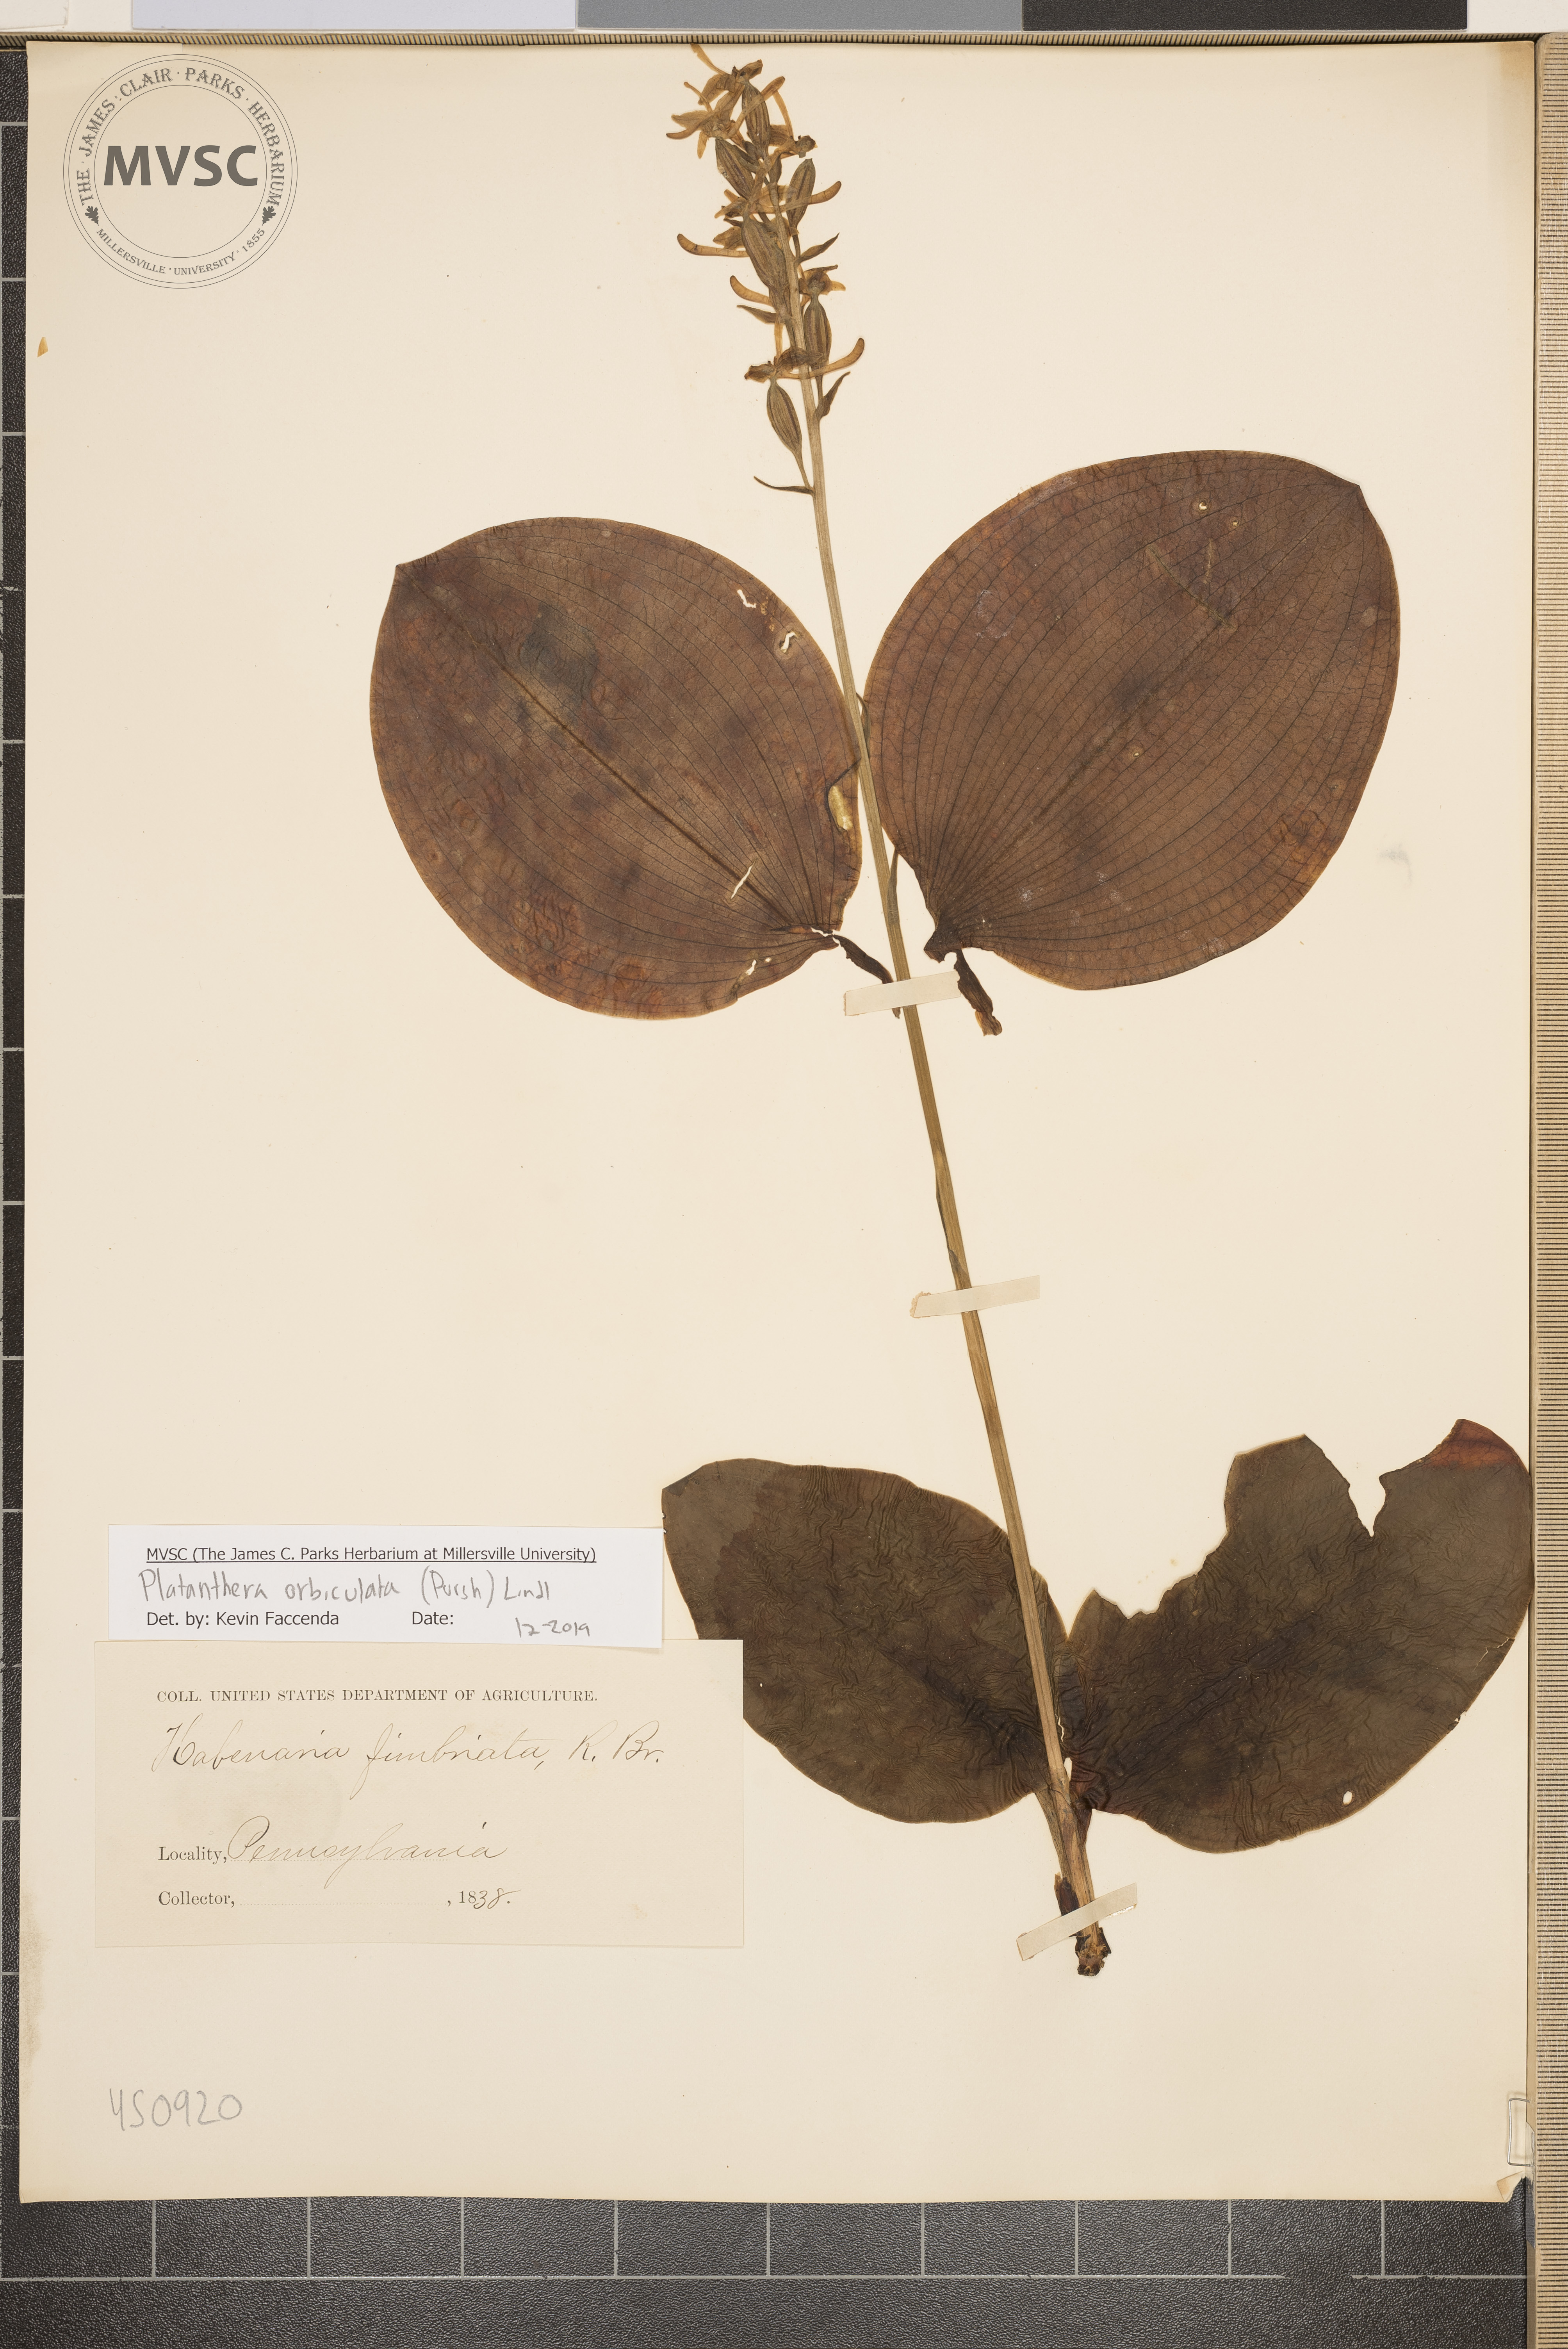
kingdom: Plantae
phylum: Tracheophyta
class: Liliopsida
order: Asparagales
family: Orchidaceae
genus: Platanthera
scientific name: Platanthera orbiculata
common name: Large round-leaved orchid
